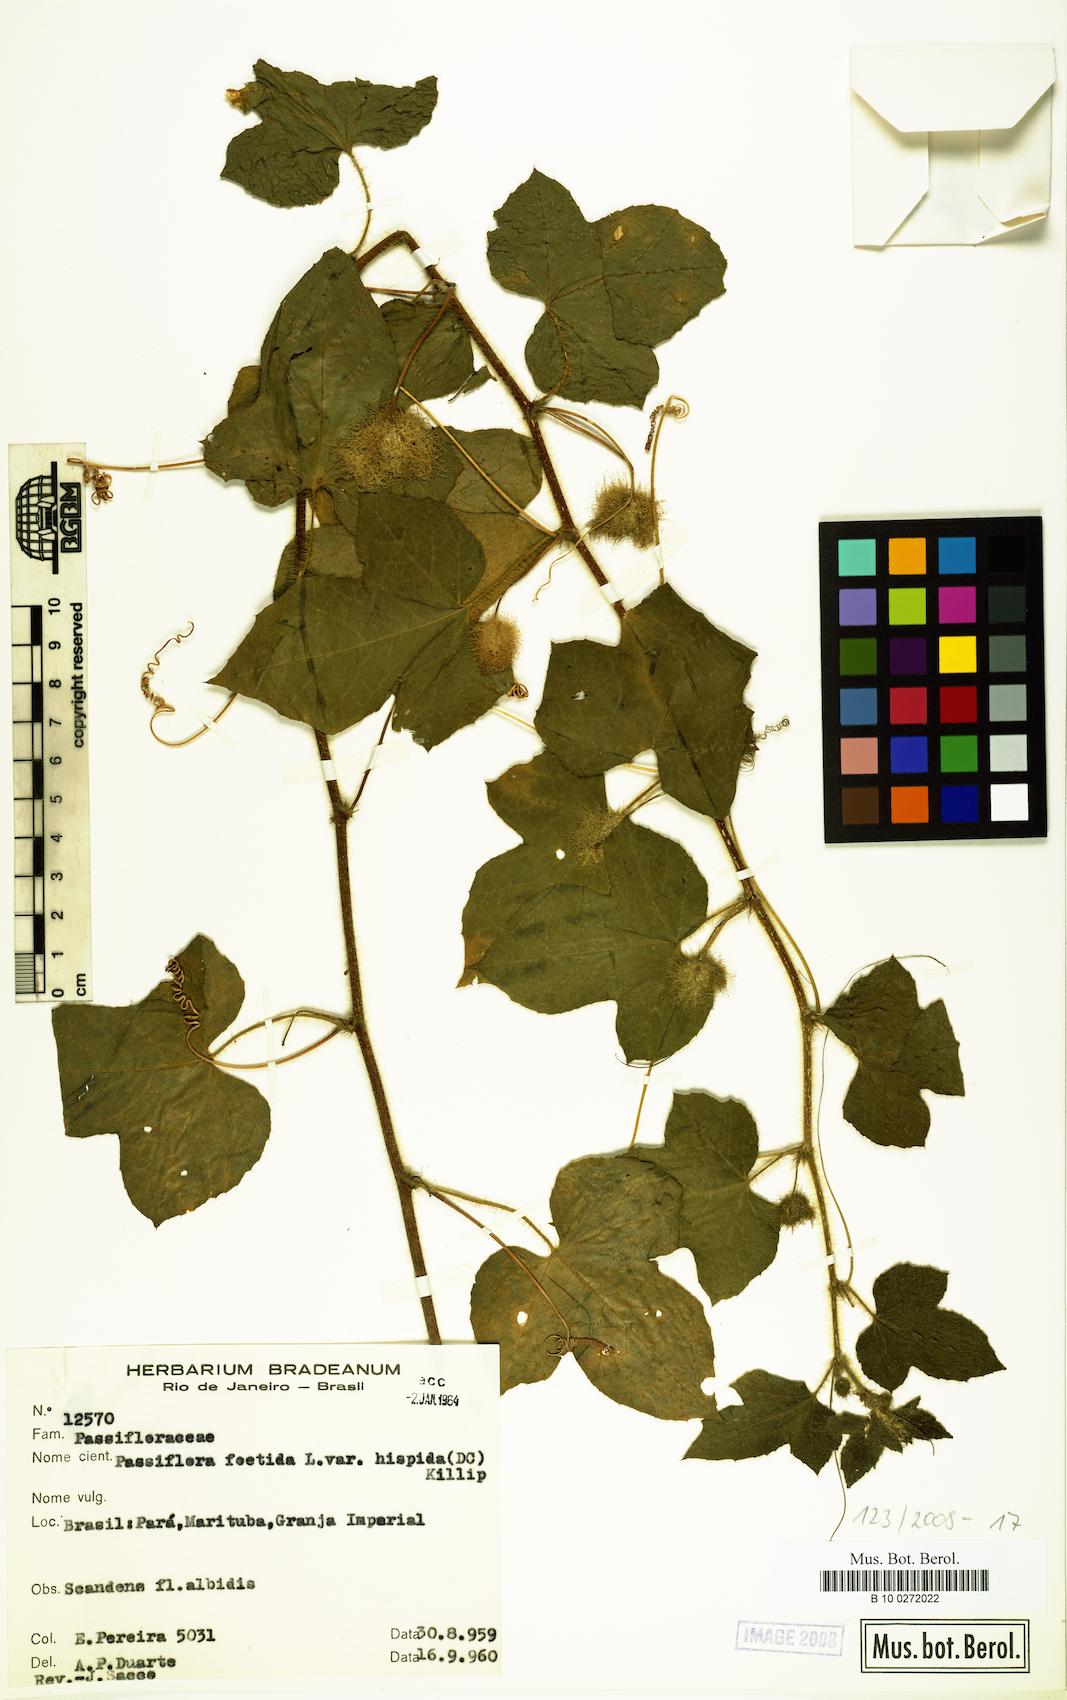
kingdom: Plantae
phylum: Tracheophyta
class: Magnoliopsida
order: Malpighiales
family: Passifloraceae
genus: Passiflora
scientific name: Passiflora vesicaria
